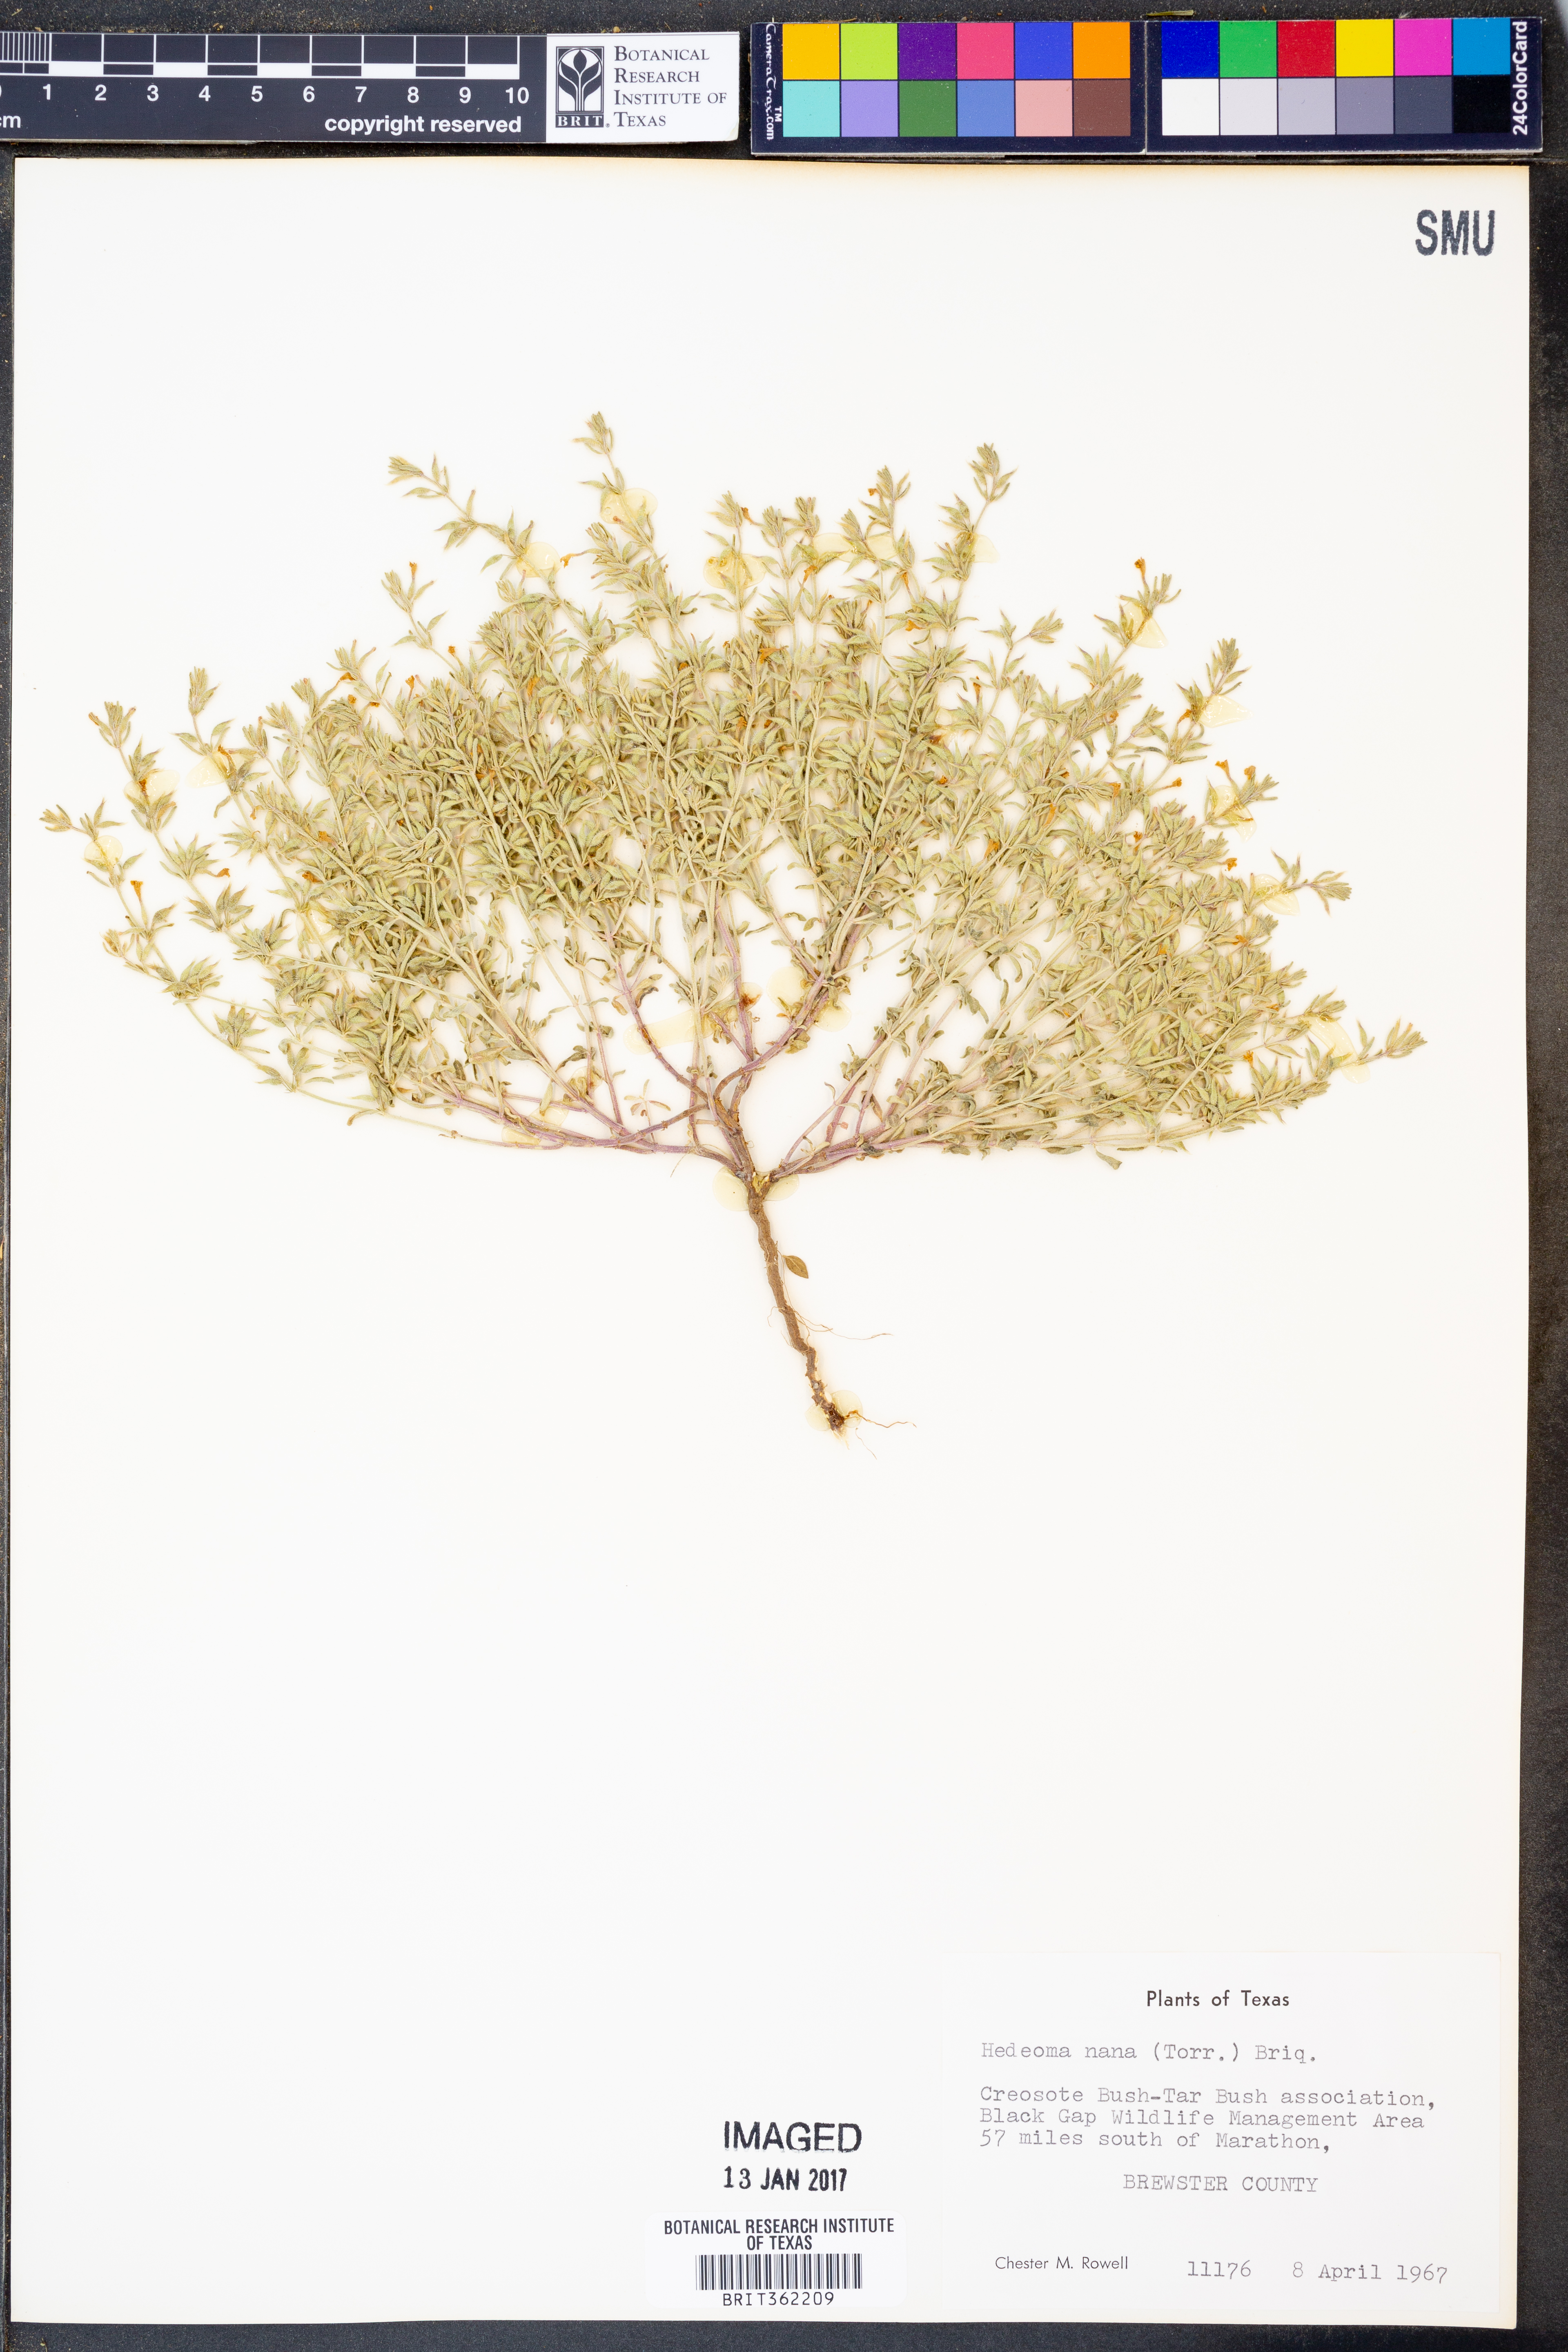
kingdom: Plantae
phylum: Tracheophyta
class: Magnoliopsida
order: Lamiales
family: Lamiaceae
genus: Hedeoma
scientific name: Hedeoma nana
